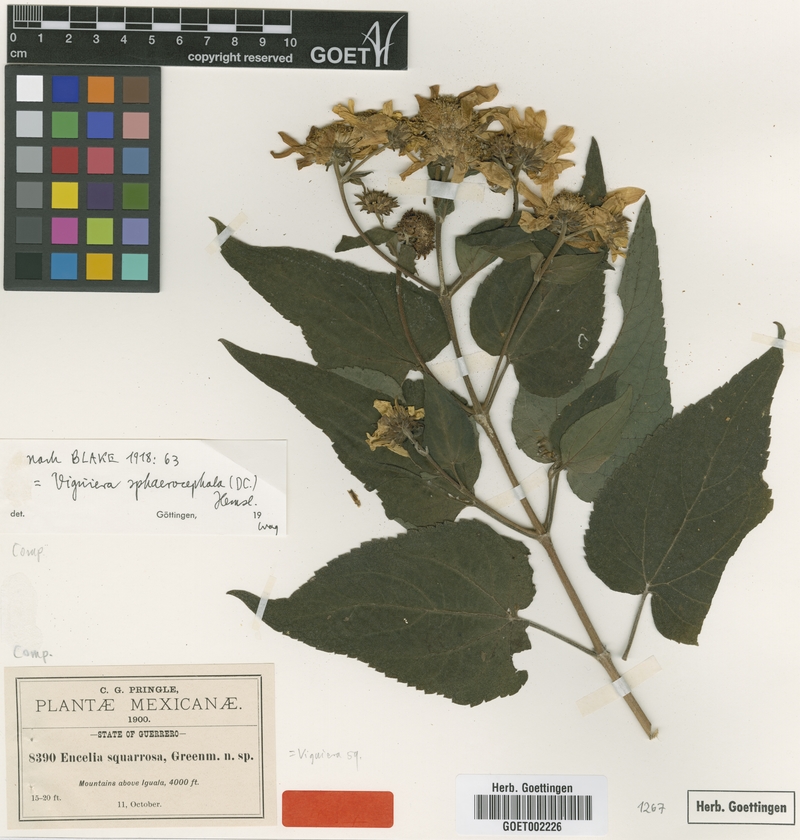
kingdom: Plantae
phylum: Tracheophyta
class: Magnoliopsida
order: Asterales
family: Asteraceae
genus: Dendroviguiera
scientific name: Dendroviguiera sphaerocephala
